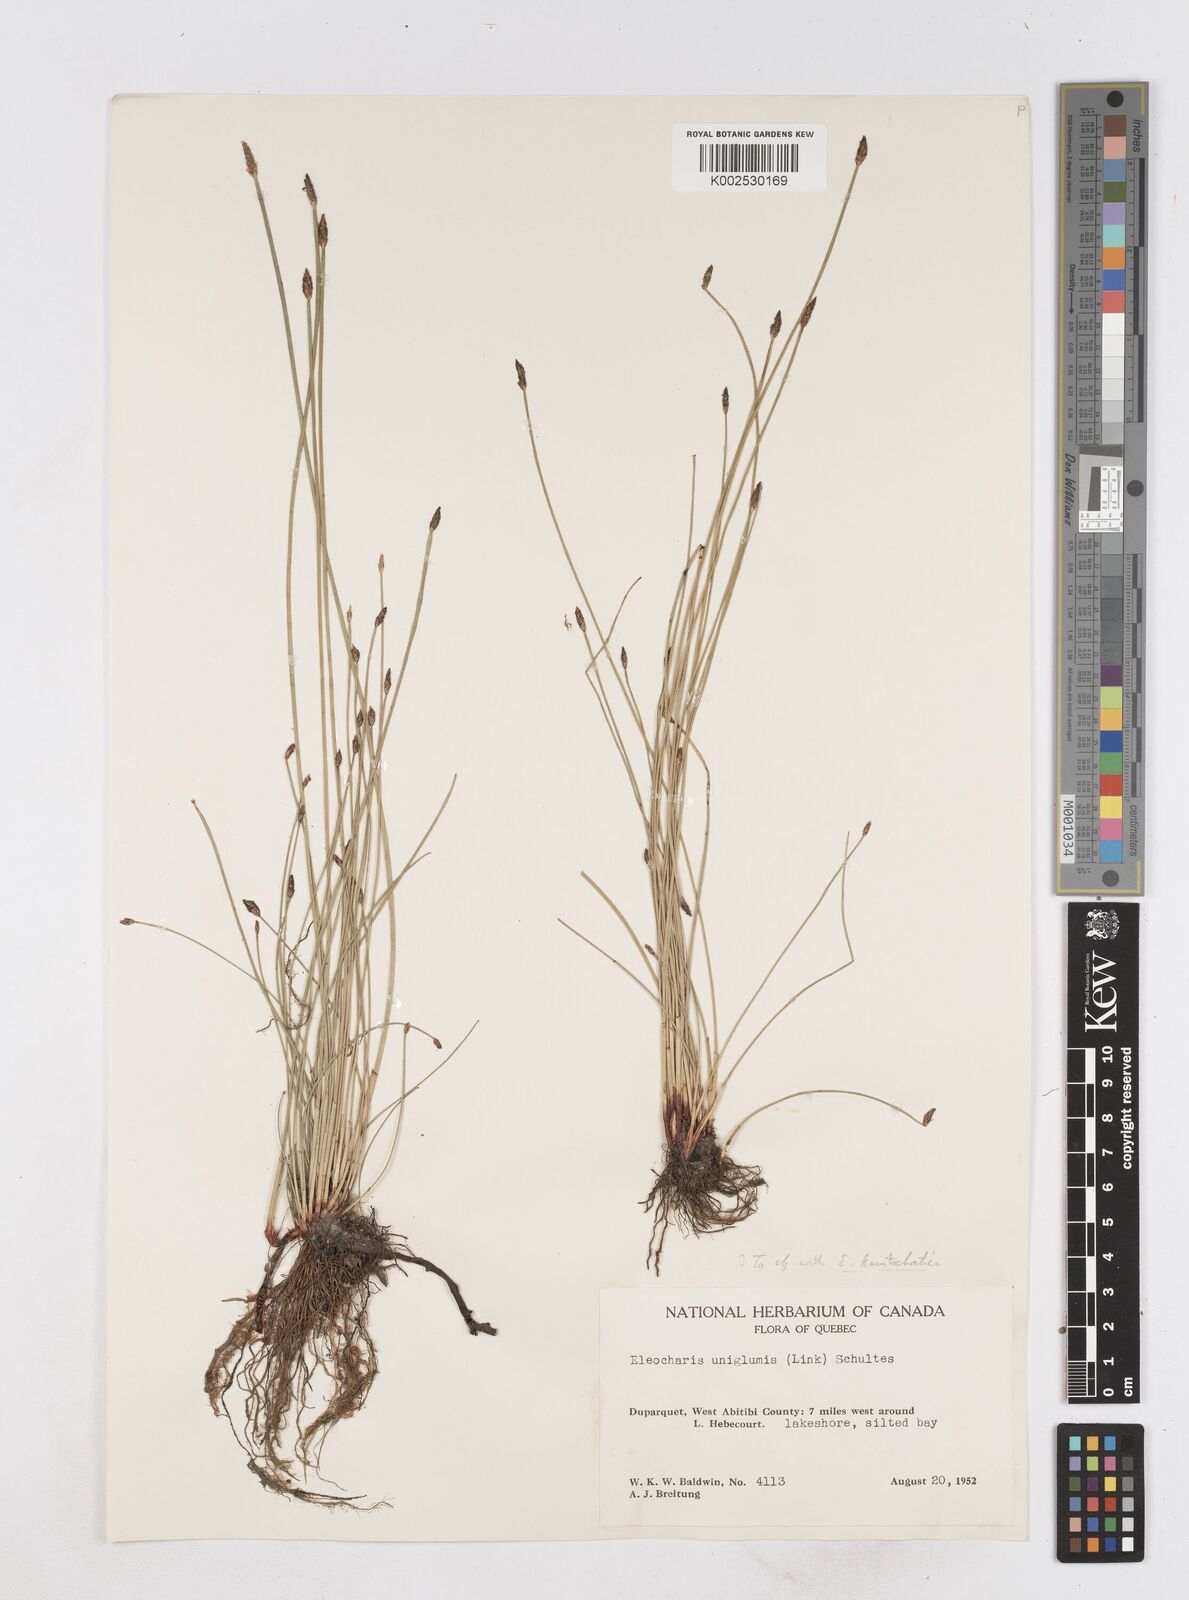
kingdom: Plantae
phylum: Tracheophyta
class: Liliopsida
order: Poales
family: Cyperaceae
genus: Eleocharis
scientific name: Eleocharis uniglumis
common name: Slender spike-rush
